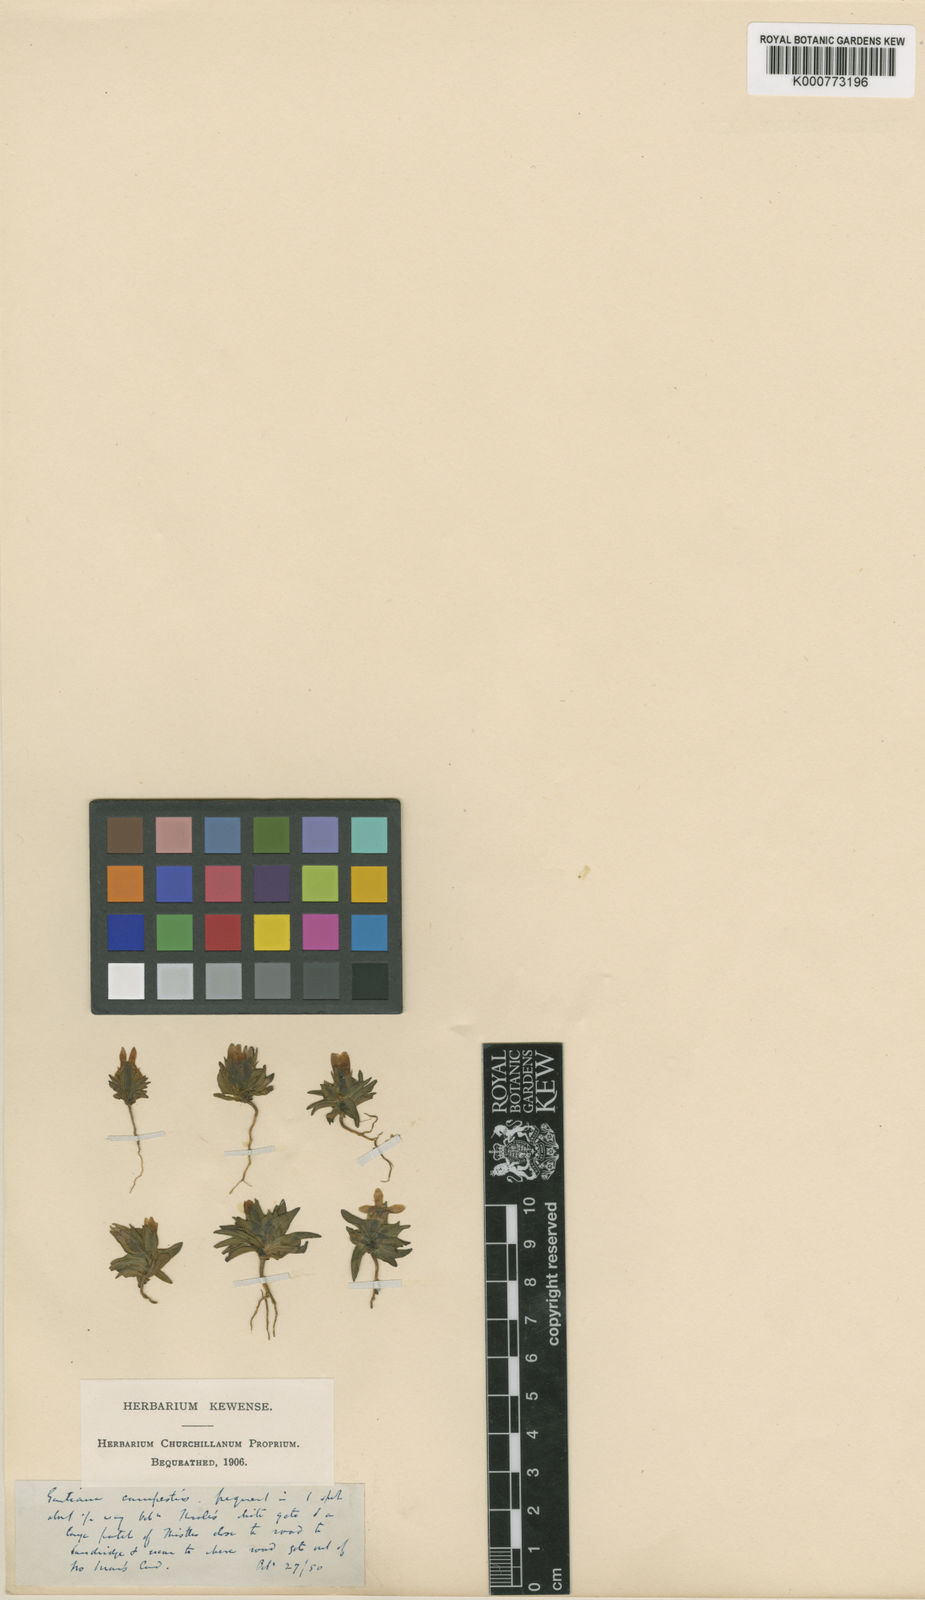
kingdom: Plantae
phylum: Tracheophyta
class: Magnoliopsida
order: Gentianales
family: Gentianaceae
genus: Gentianella
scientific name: Gentianella
